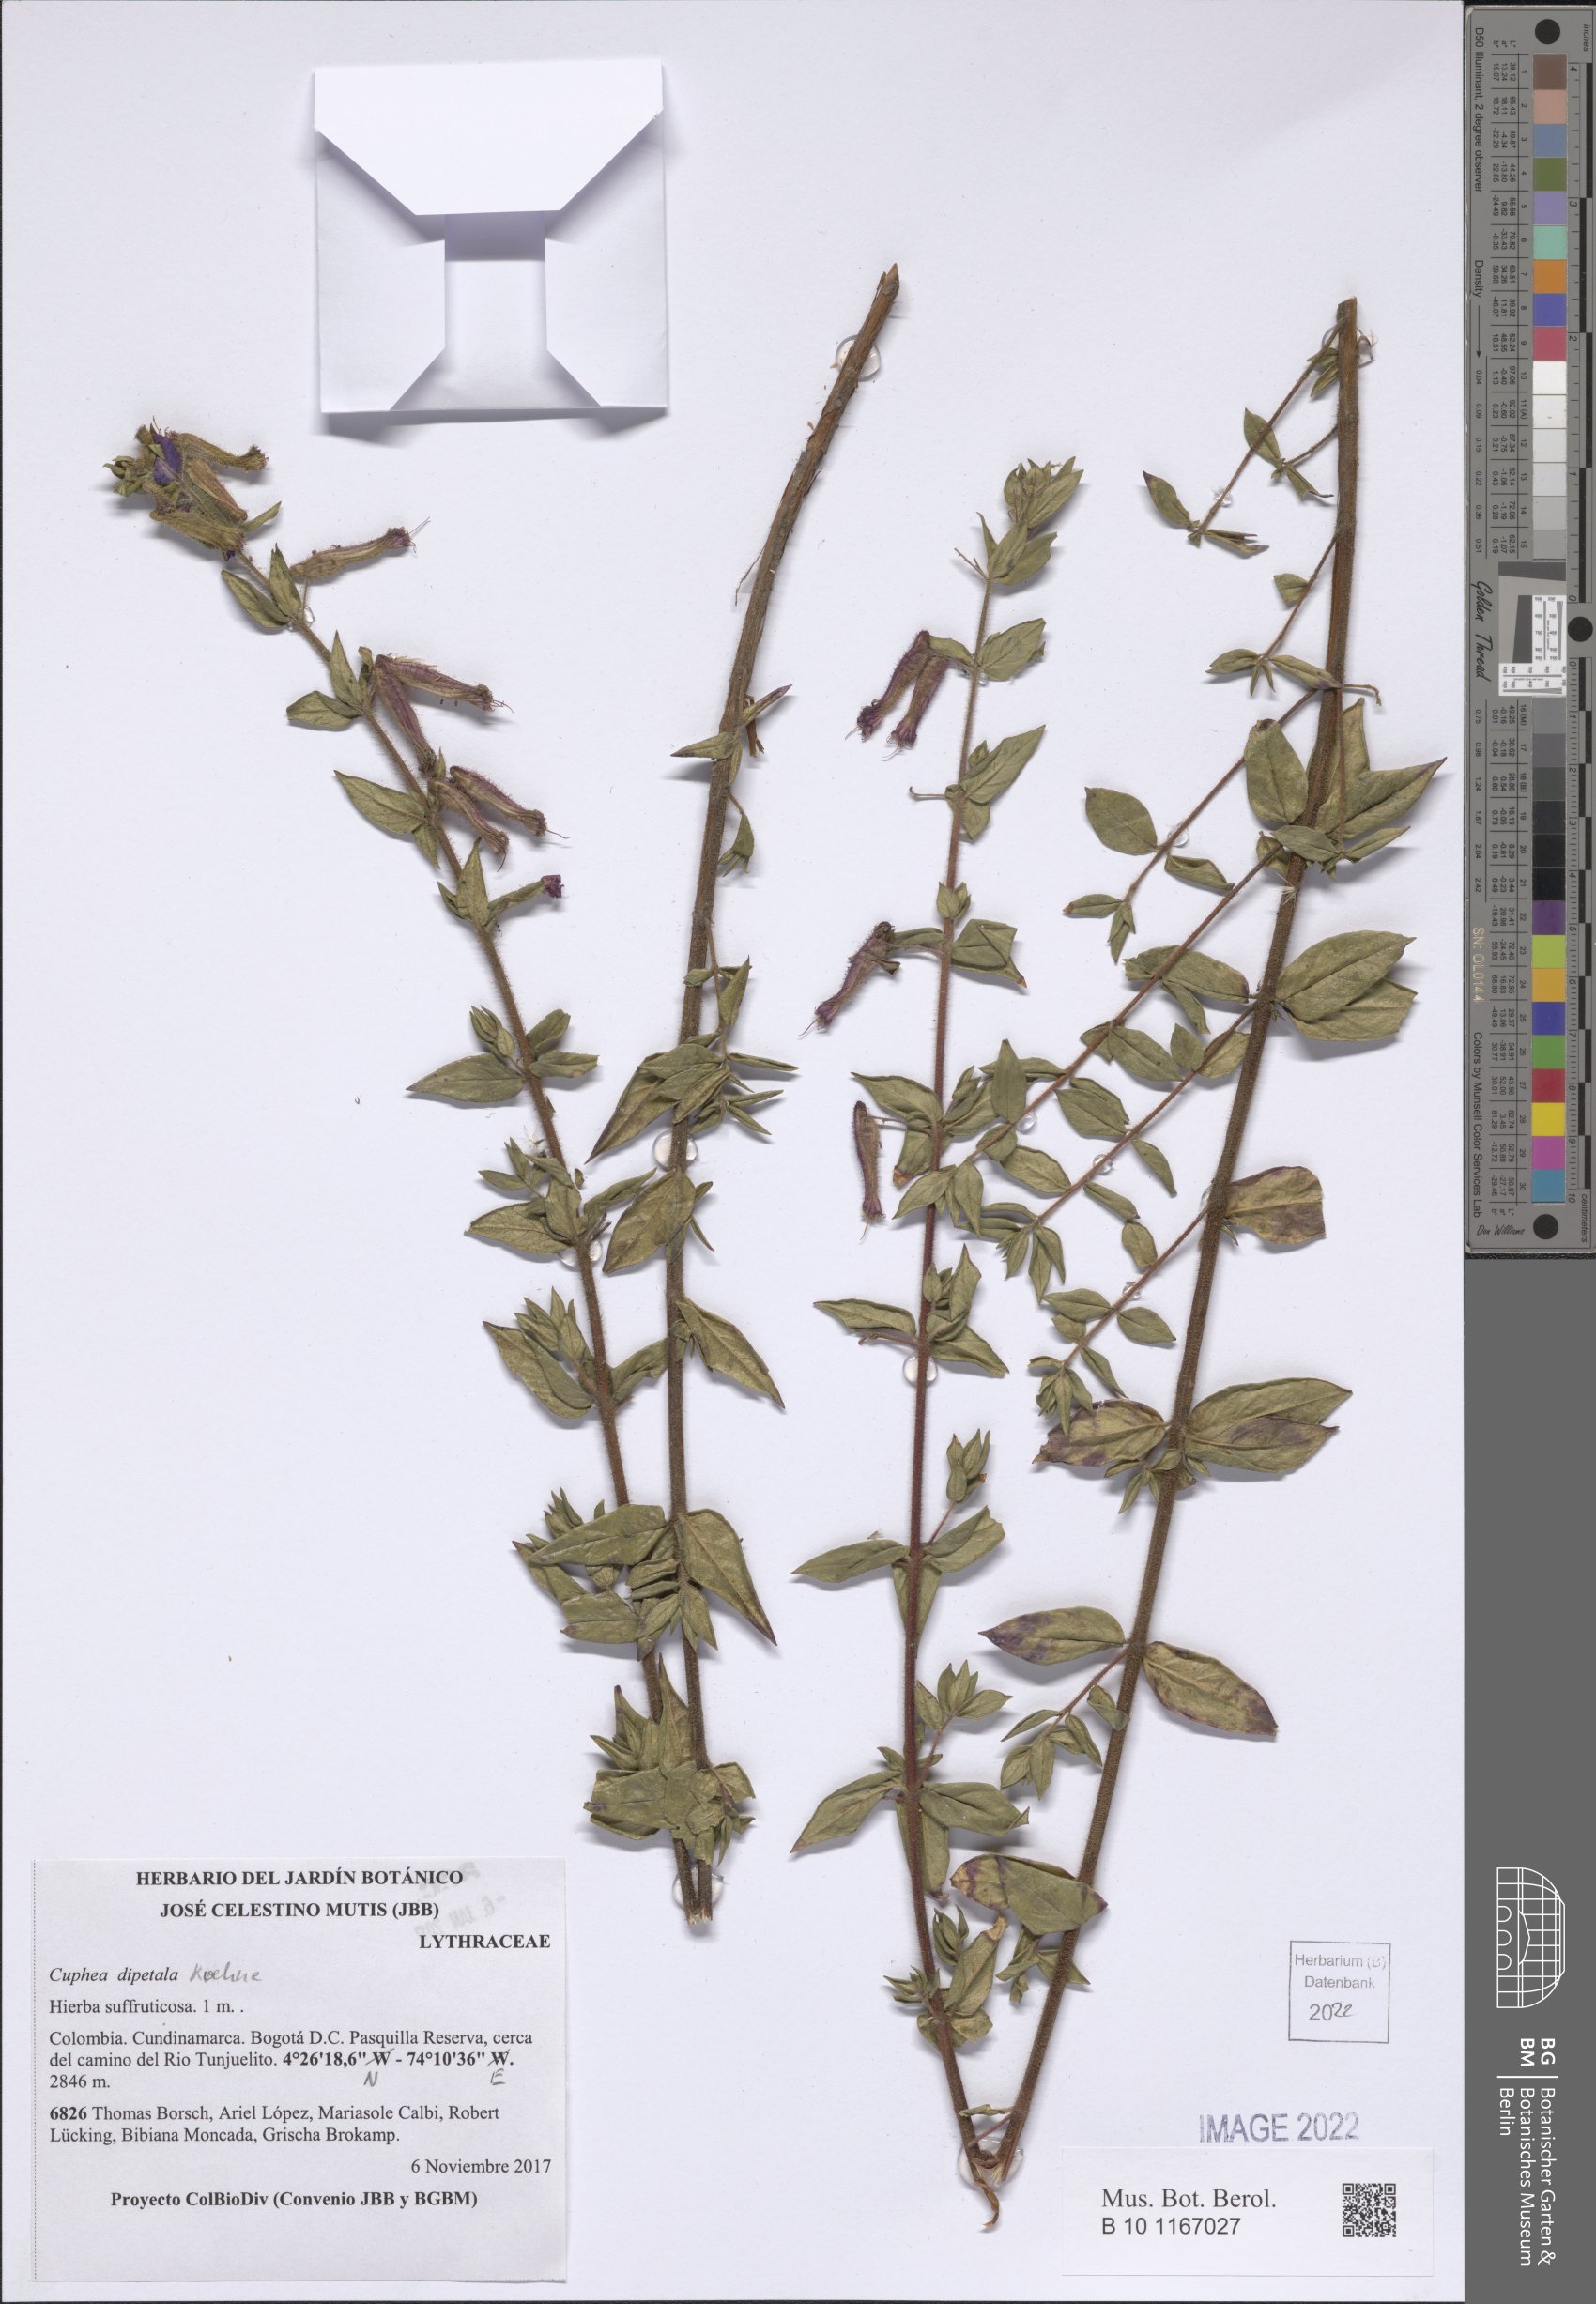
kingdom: Plantae
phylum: Tracheophyta
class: Magnoliopsida
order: Myrtales
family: Lythraceae
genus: Cuphea
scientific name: Cuphea dipetala
